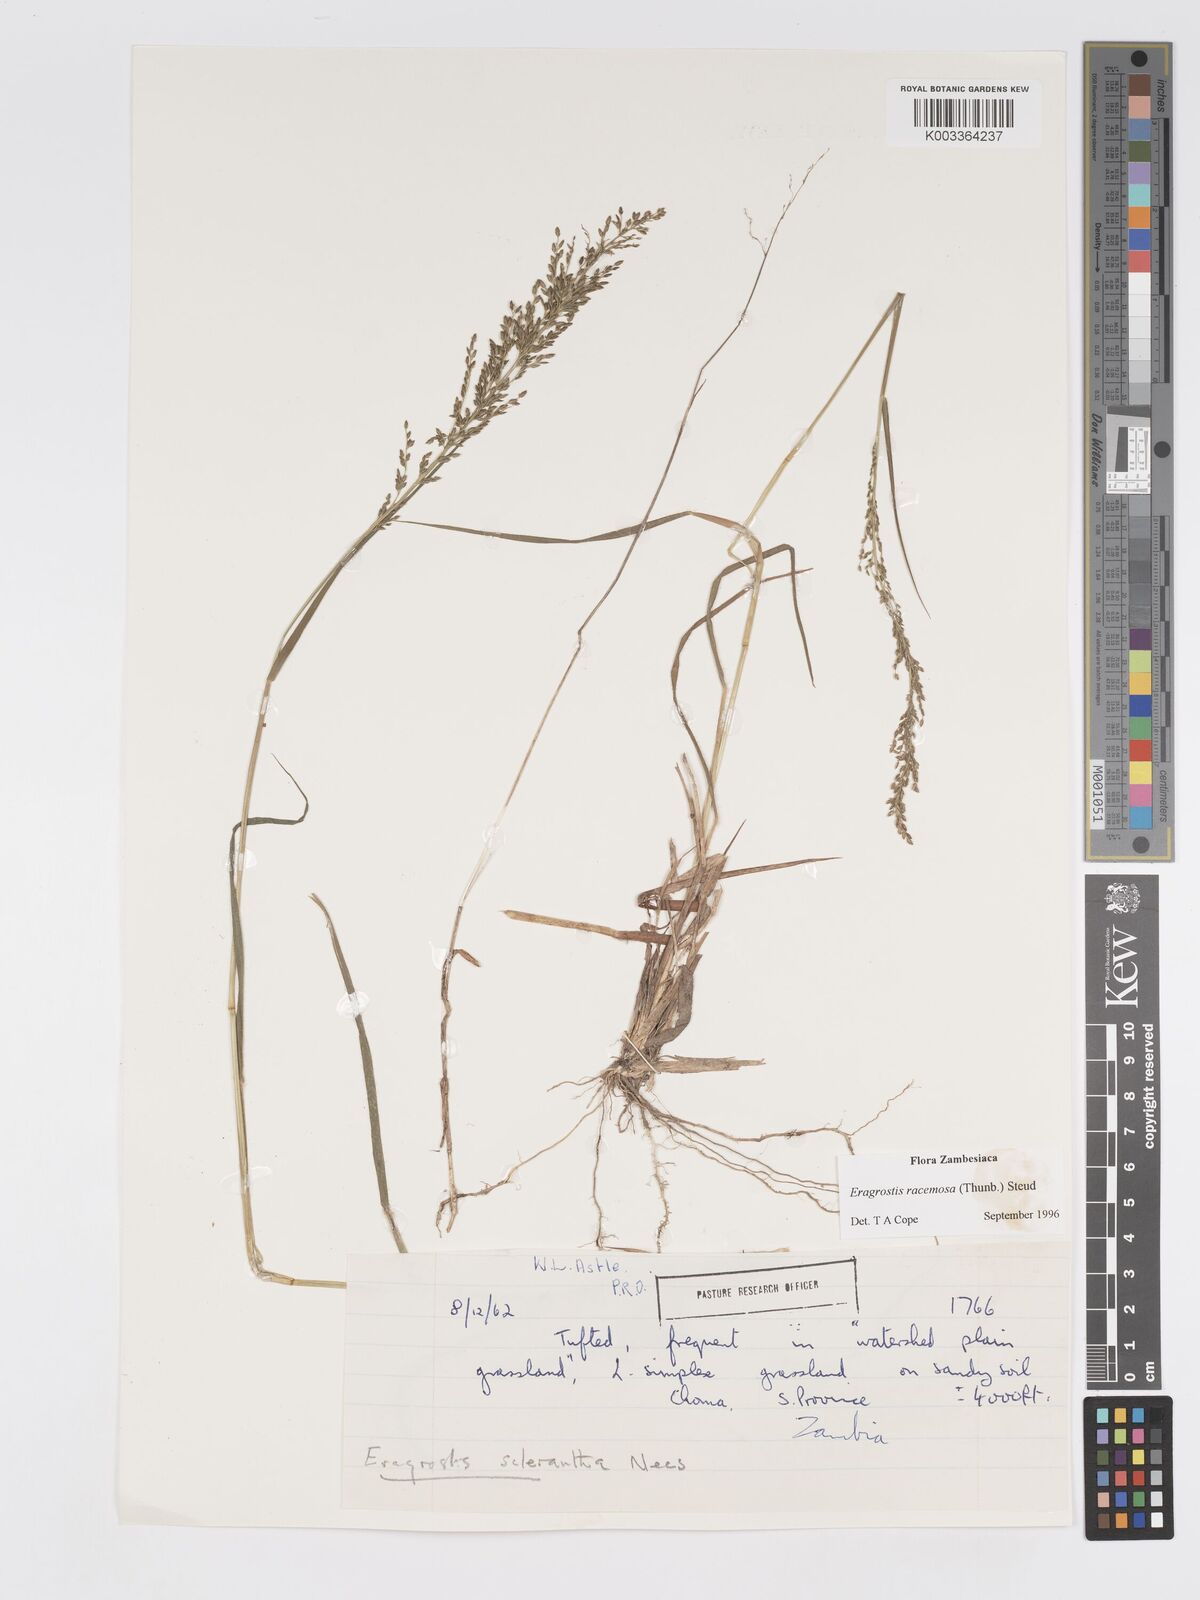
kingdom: Plantae
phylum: Tracheophyta
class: Liliopsida
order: Poales
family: Poaceae
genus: Eragrostis
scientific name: Eragrostis racemosa
